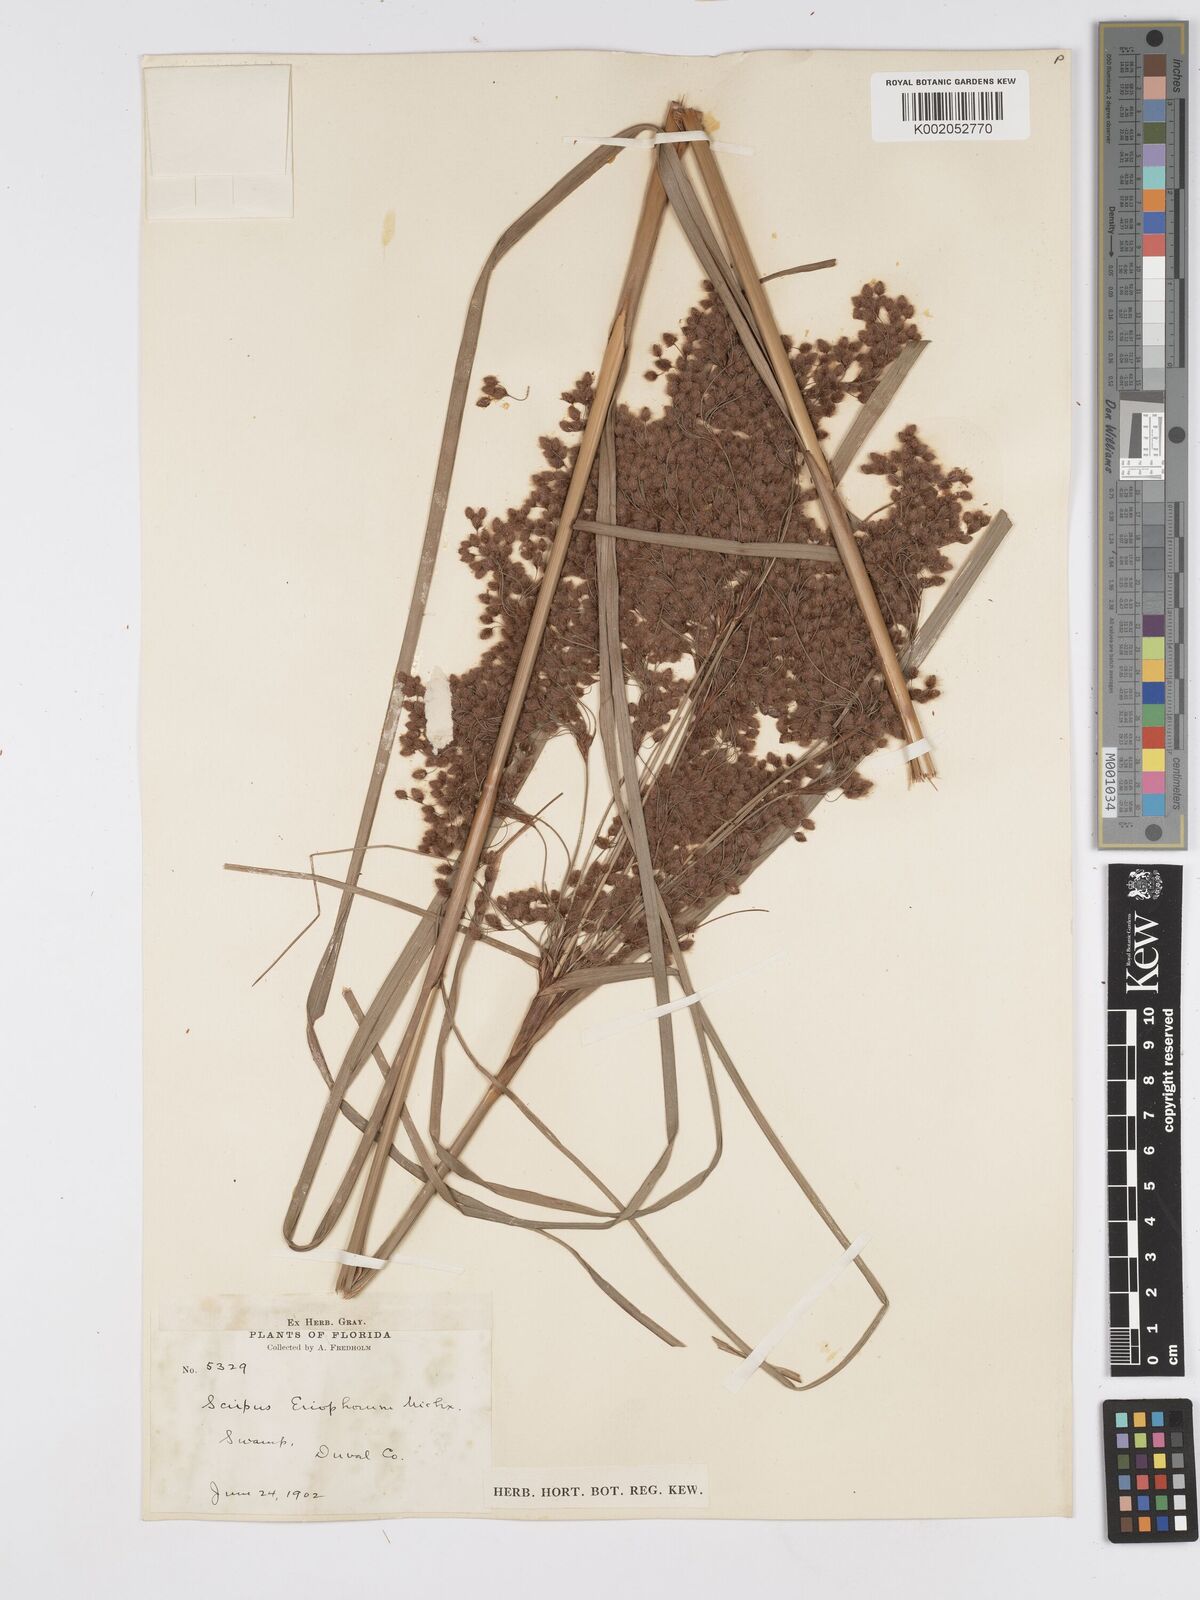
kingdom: Plantae
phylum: Tracheophyta
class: Liliopsida
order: Poales
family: Cyperaceae
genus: Scirpus
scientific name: Scirpus cyperinus
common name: Black-sheathed bulrush
